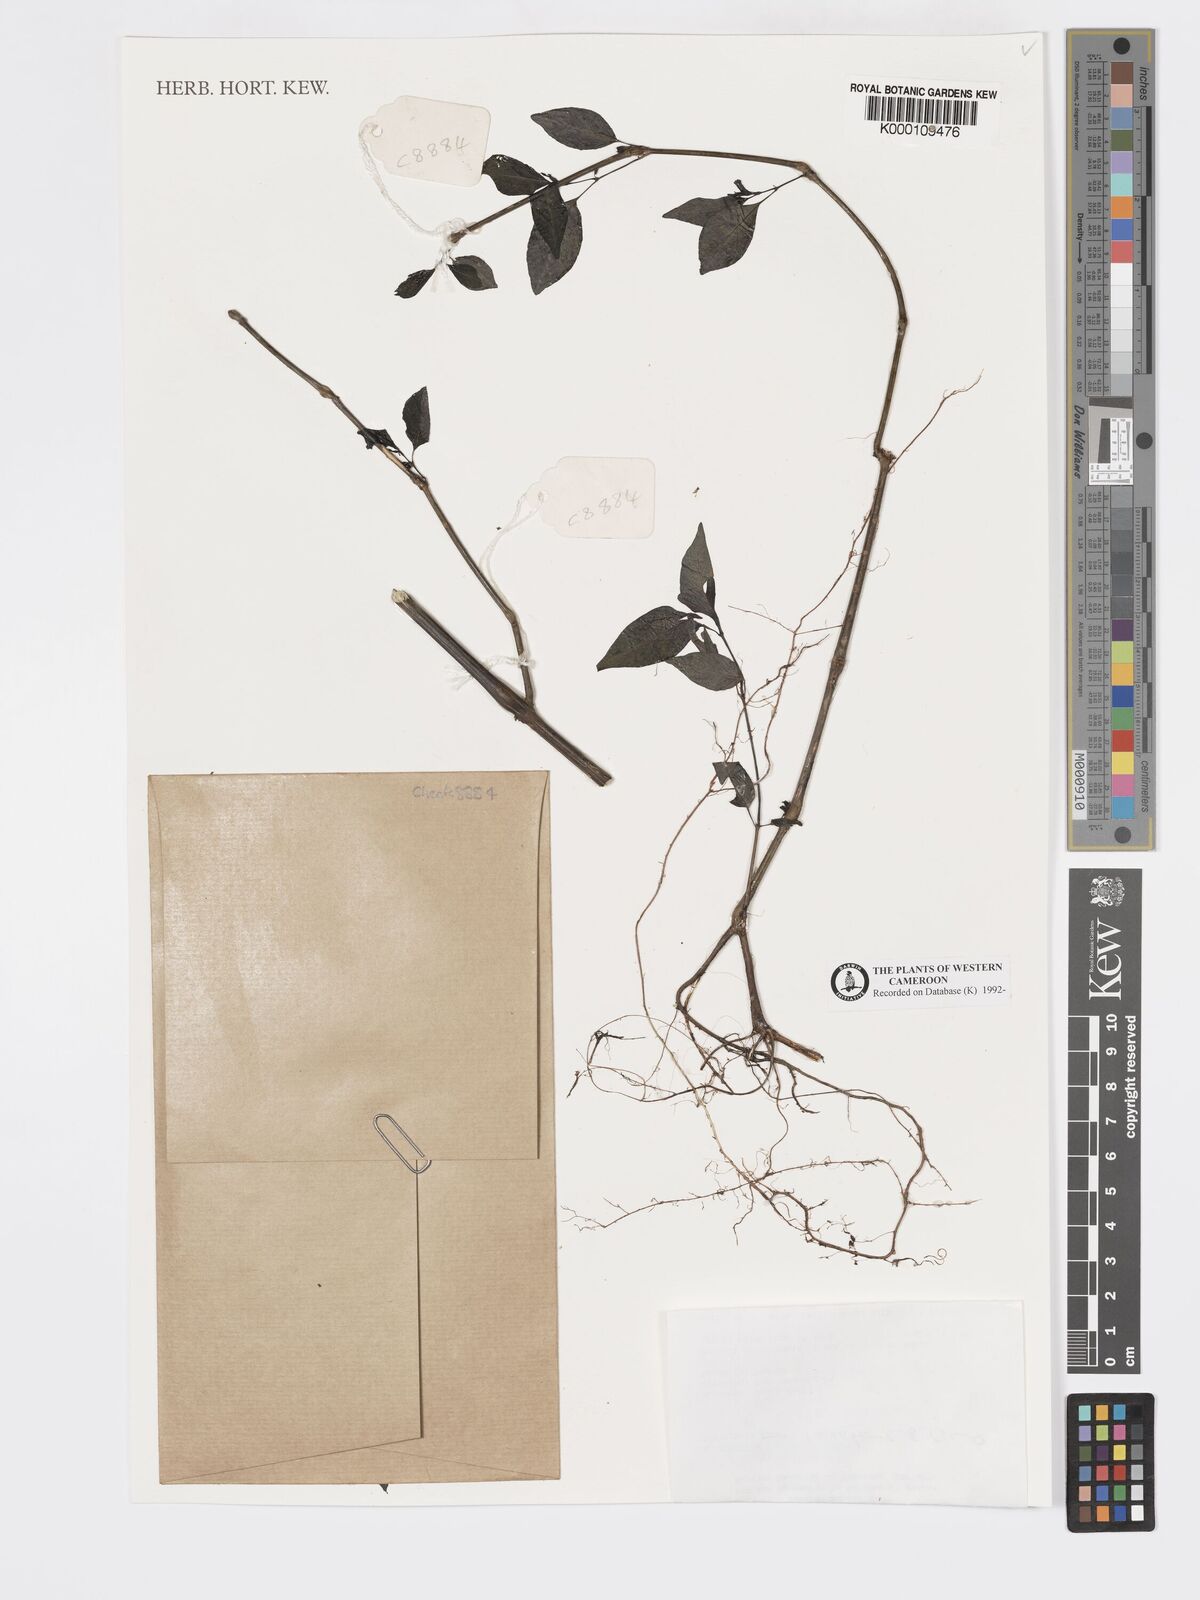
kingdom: Plantae
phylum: Tracheophyta
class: Magnoliopsida
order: Lamiales
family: Acanthaceae
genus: Dicliptera
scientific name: Dicliptera laxata
